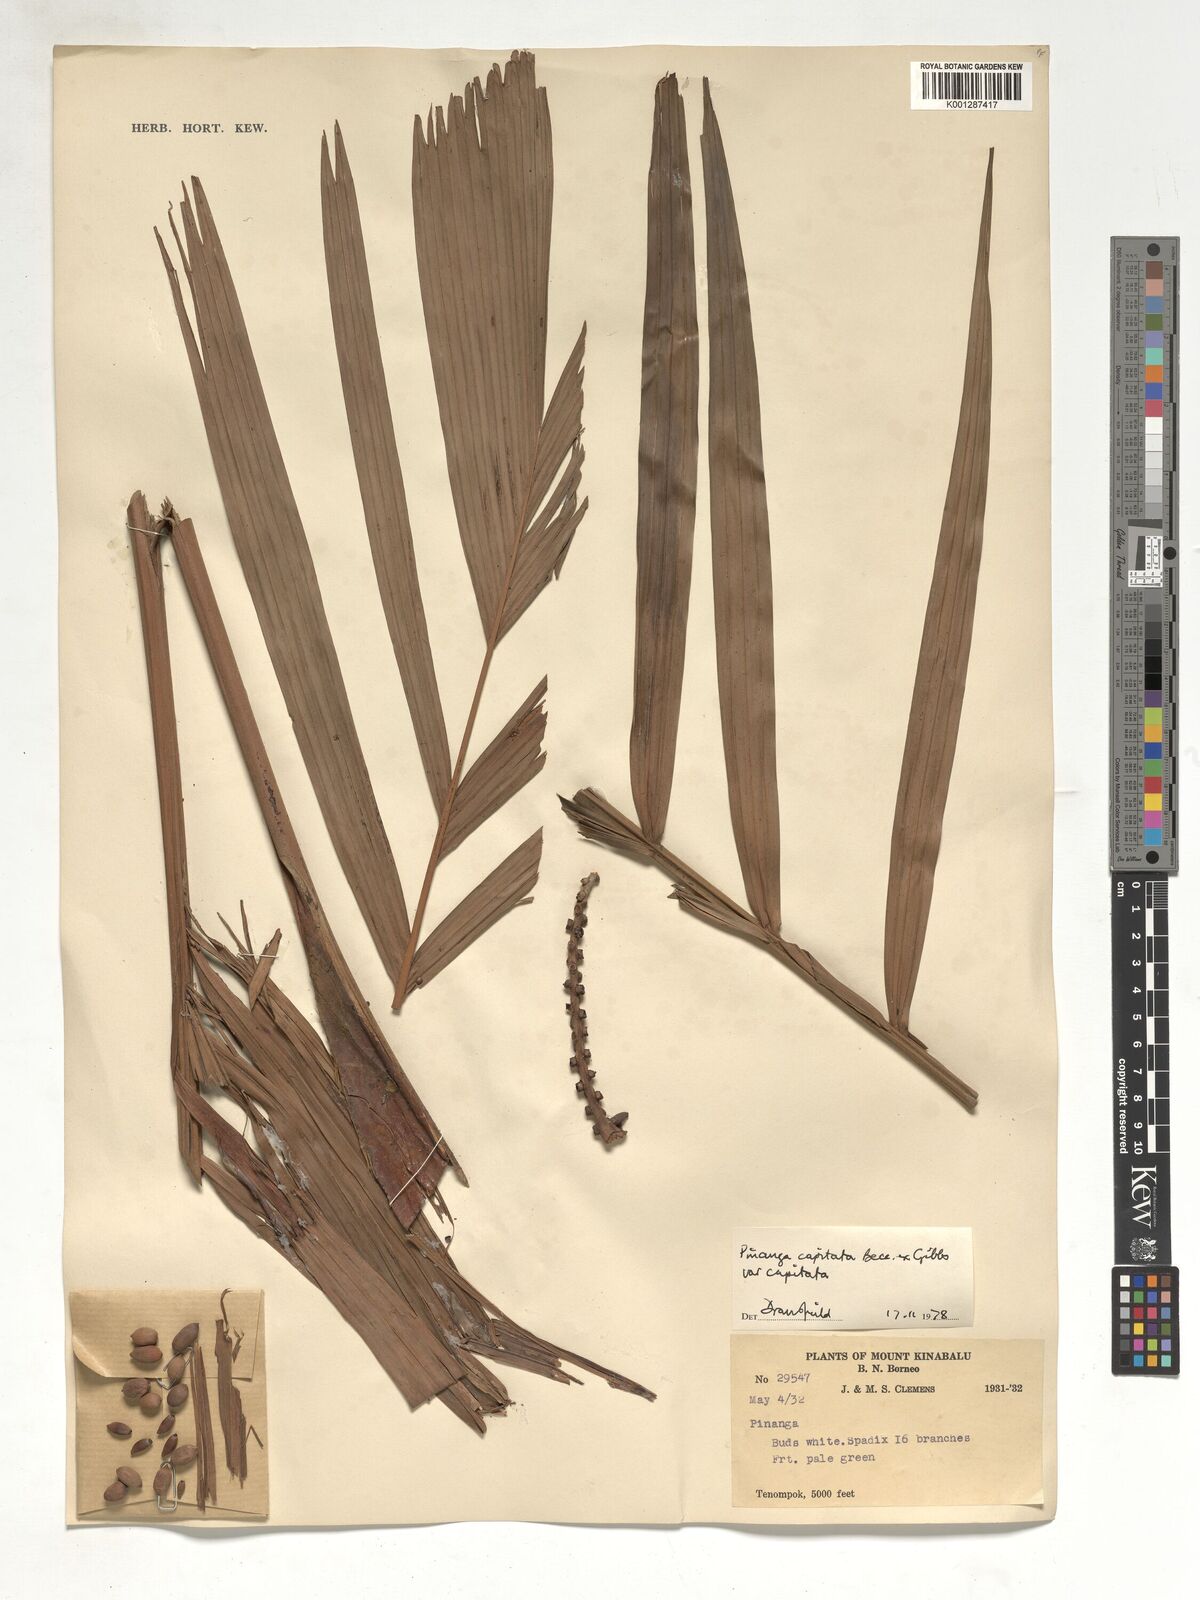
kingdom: Plantae
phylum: Tracheophyta
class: Liliopsida
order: Arecales
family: Arecaceae
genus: Pinanga
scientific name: Pinanga capitata
